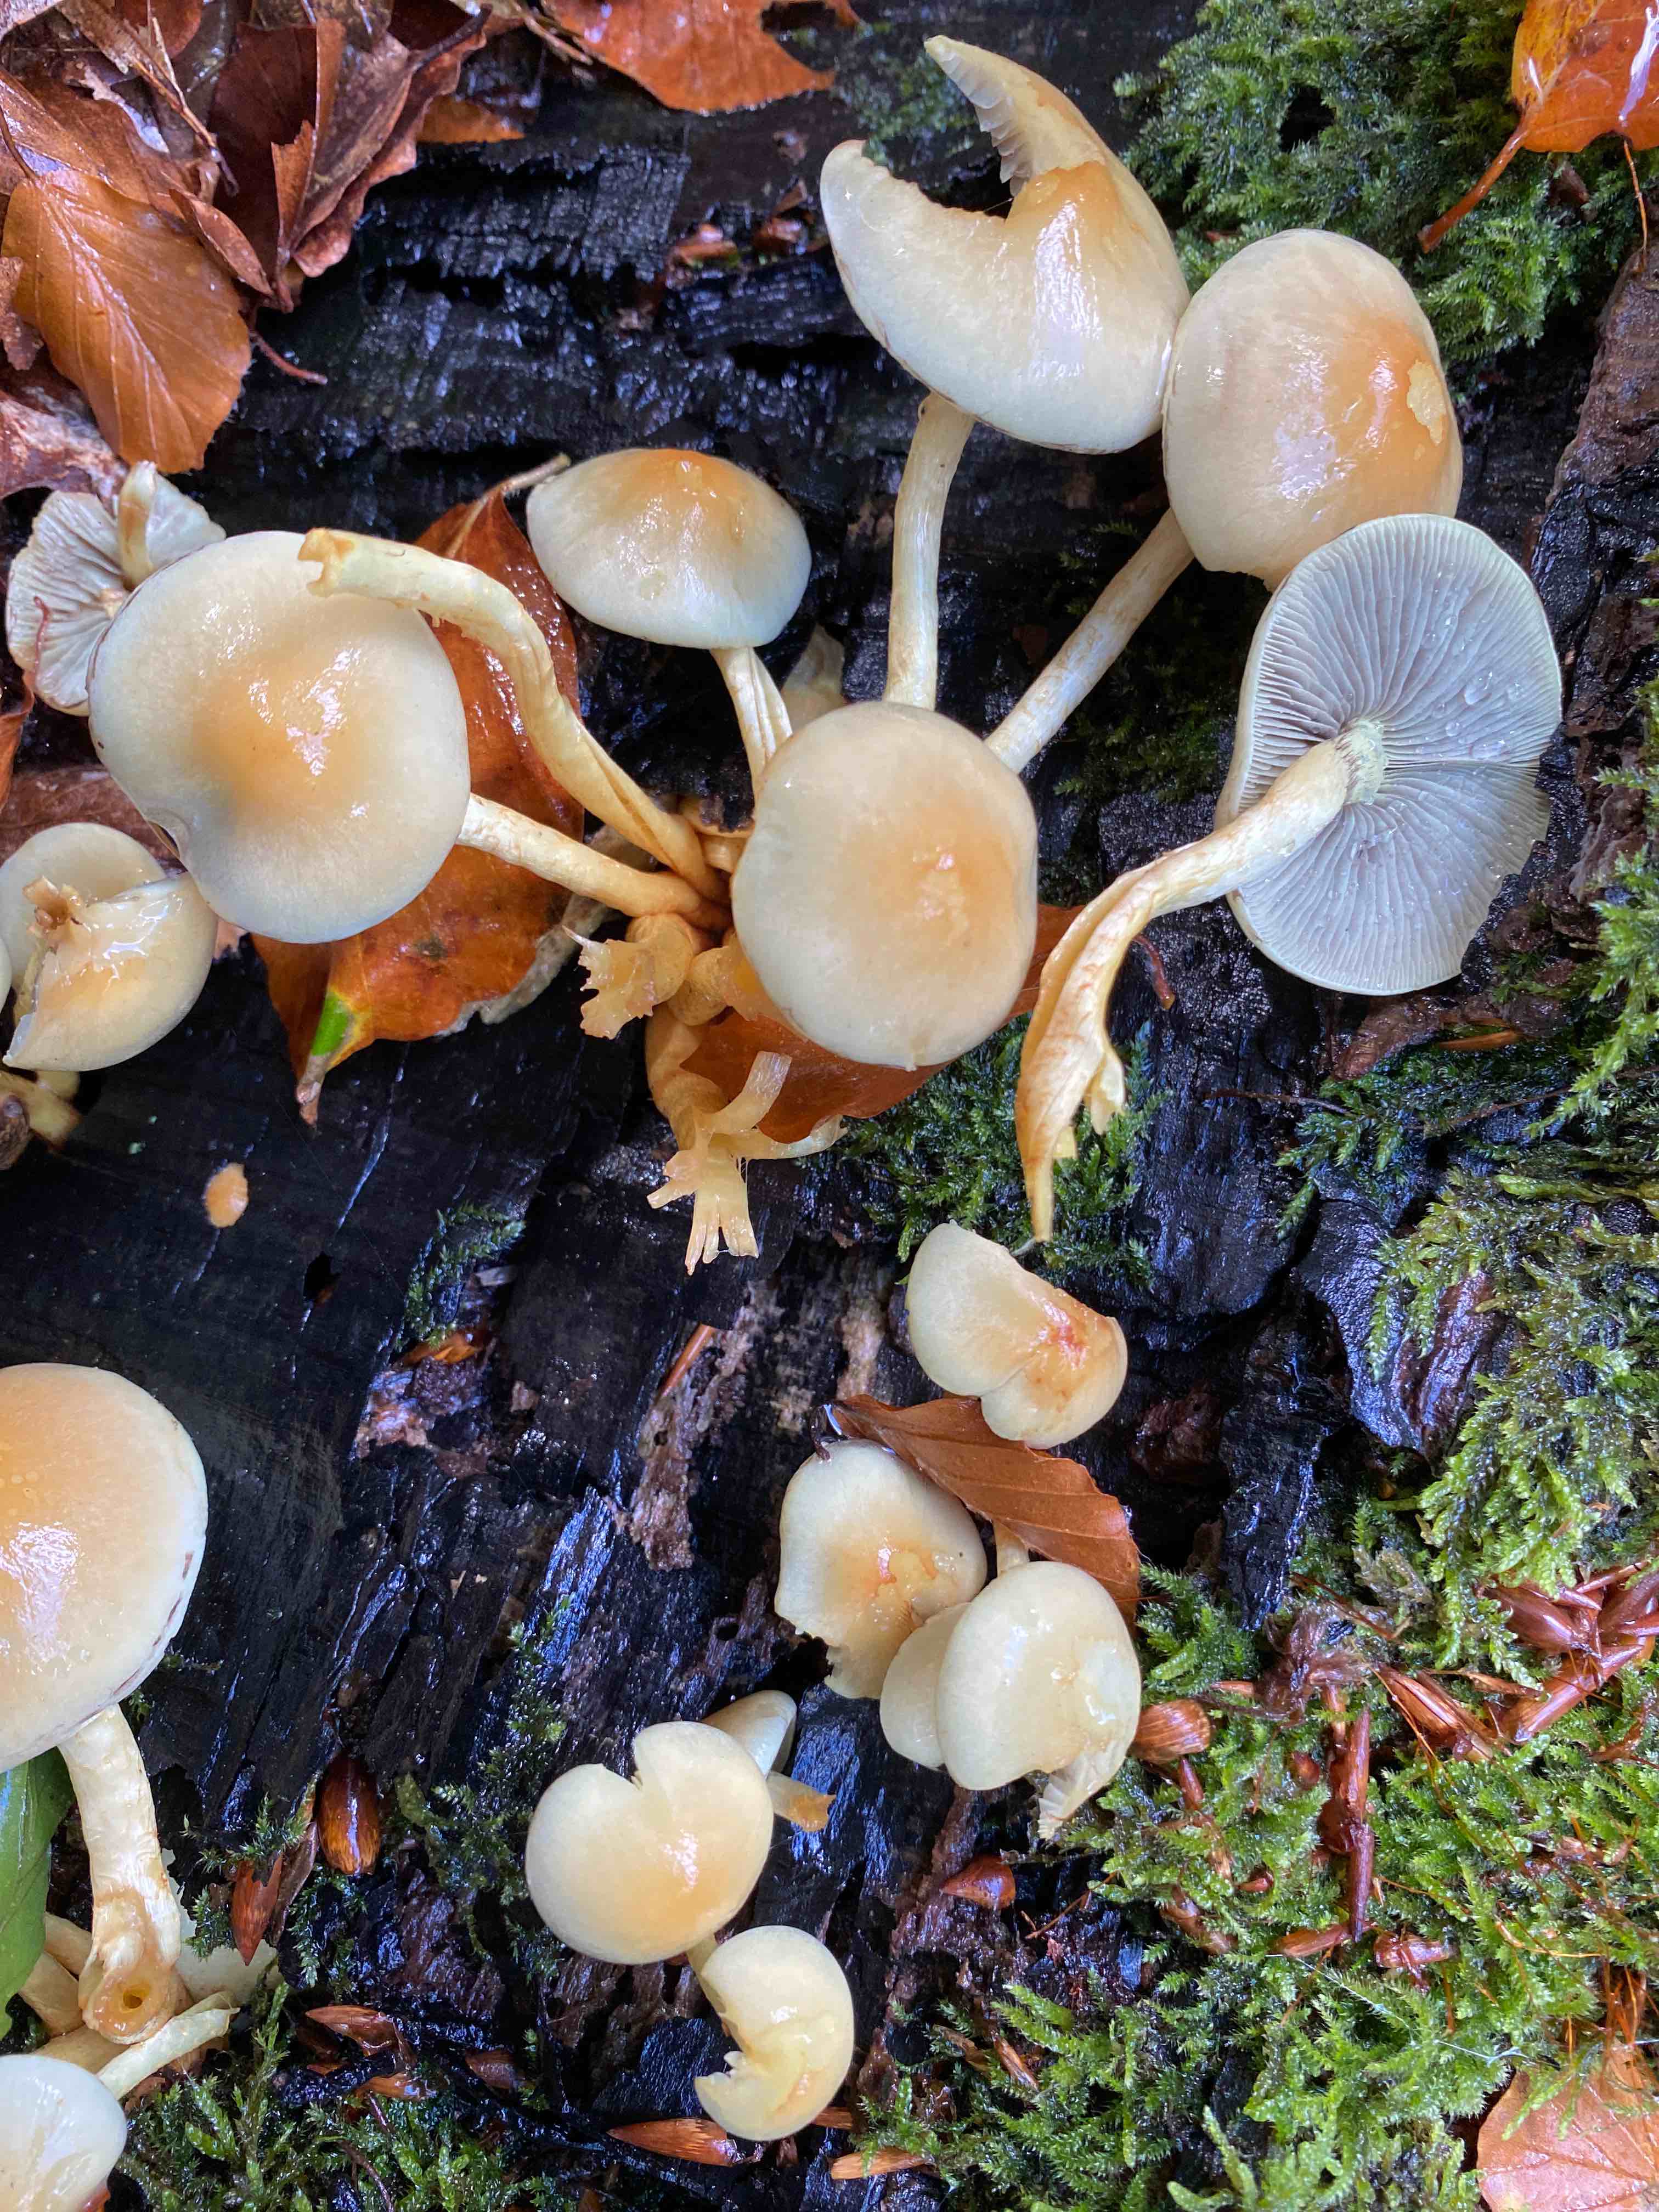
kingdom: Fungi
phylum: Basidiomycota
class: Agaricomycetes
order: Agaricales
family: Strophariaceae
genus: Hypholoma
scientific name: Hypholoma fasciculare
